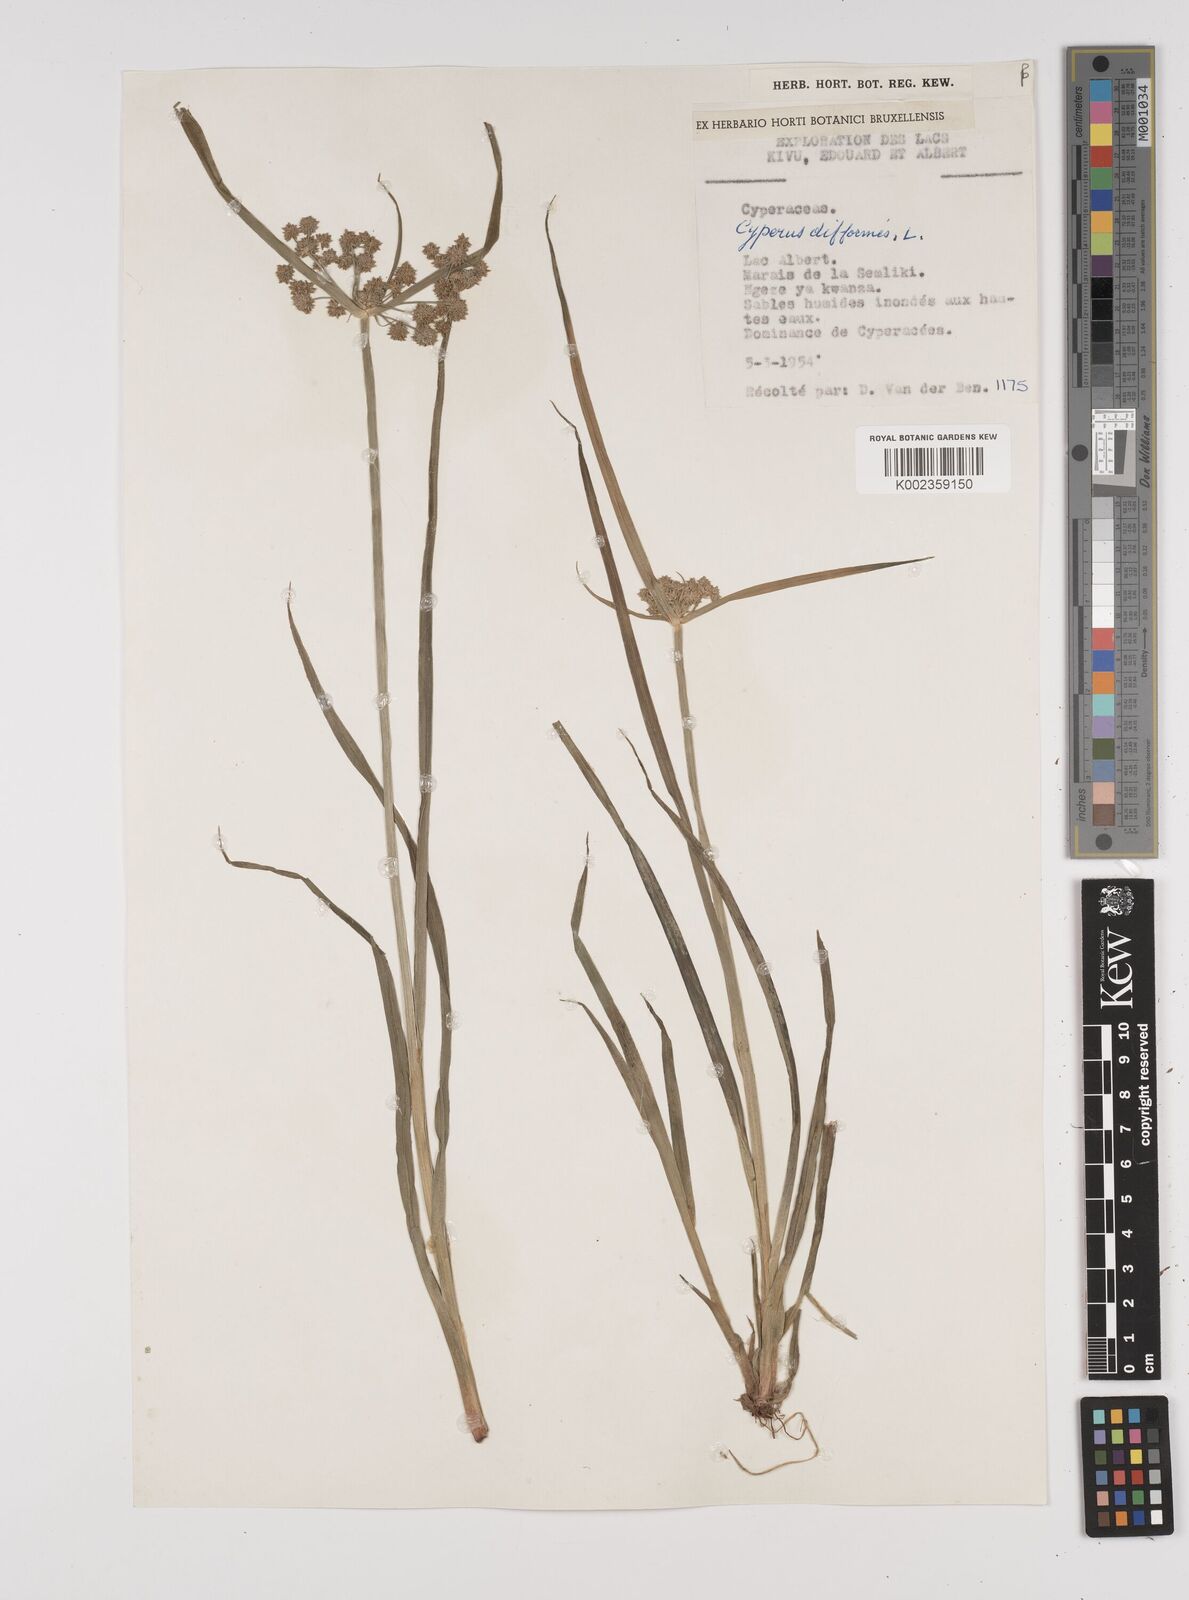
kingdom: Plantae
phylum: Tracheophyta
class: Liliopsida
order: Poales
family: Cyperaceae
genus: Cyperus
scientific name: Cyperus difformis
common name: Variable flatsedge
